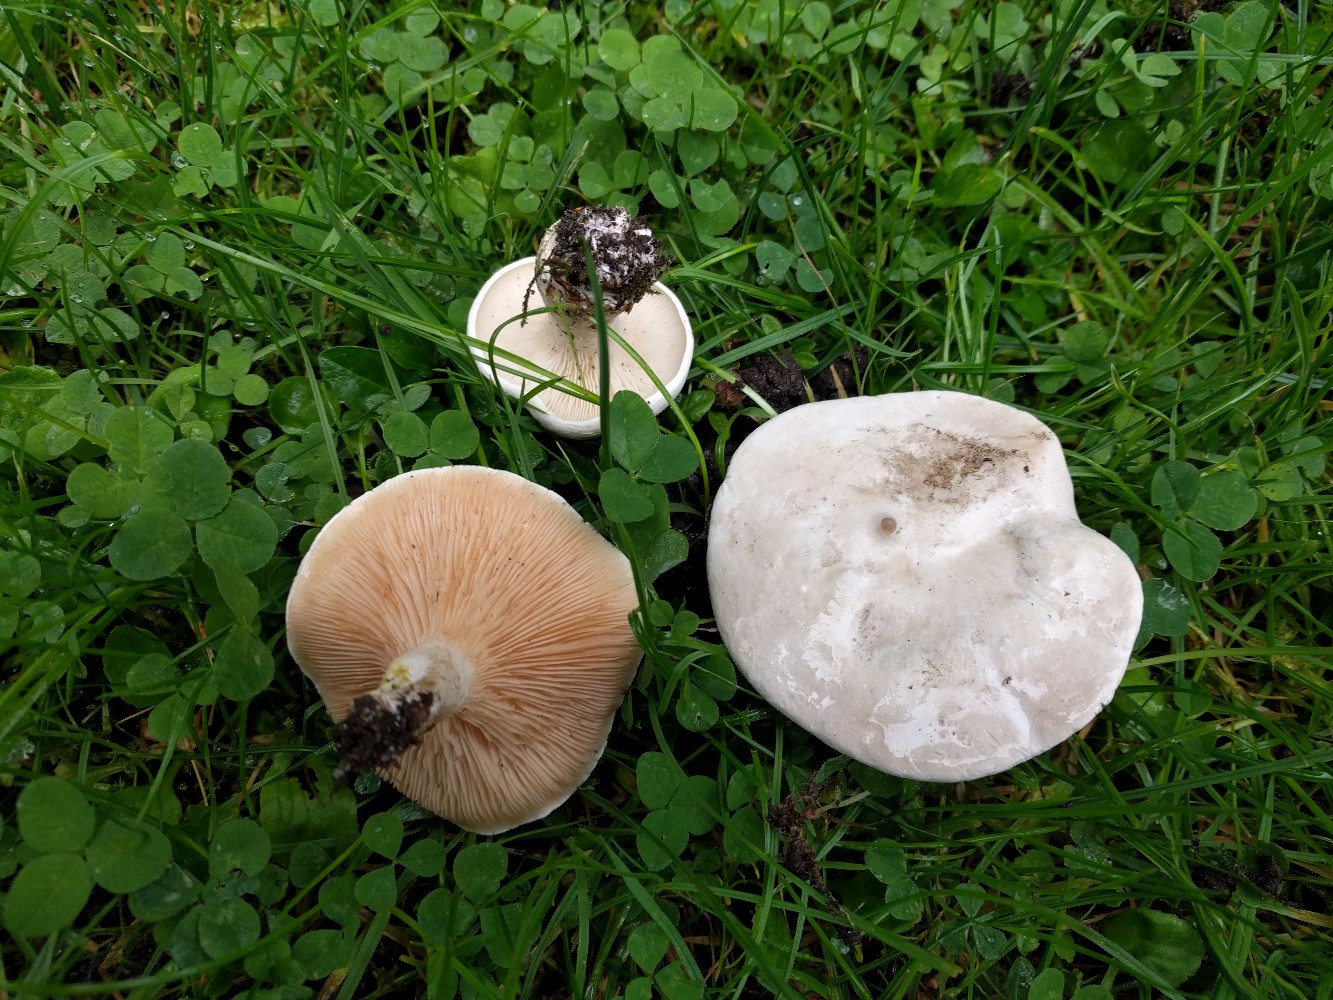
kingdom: Fungi
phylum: Basidiomycota
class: Agaricomycetes
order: Agaricales
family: Entolomataceae
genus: Clitopilus
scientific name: Clitopilus prunulus
